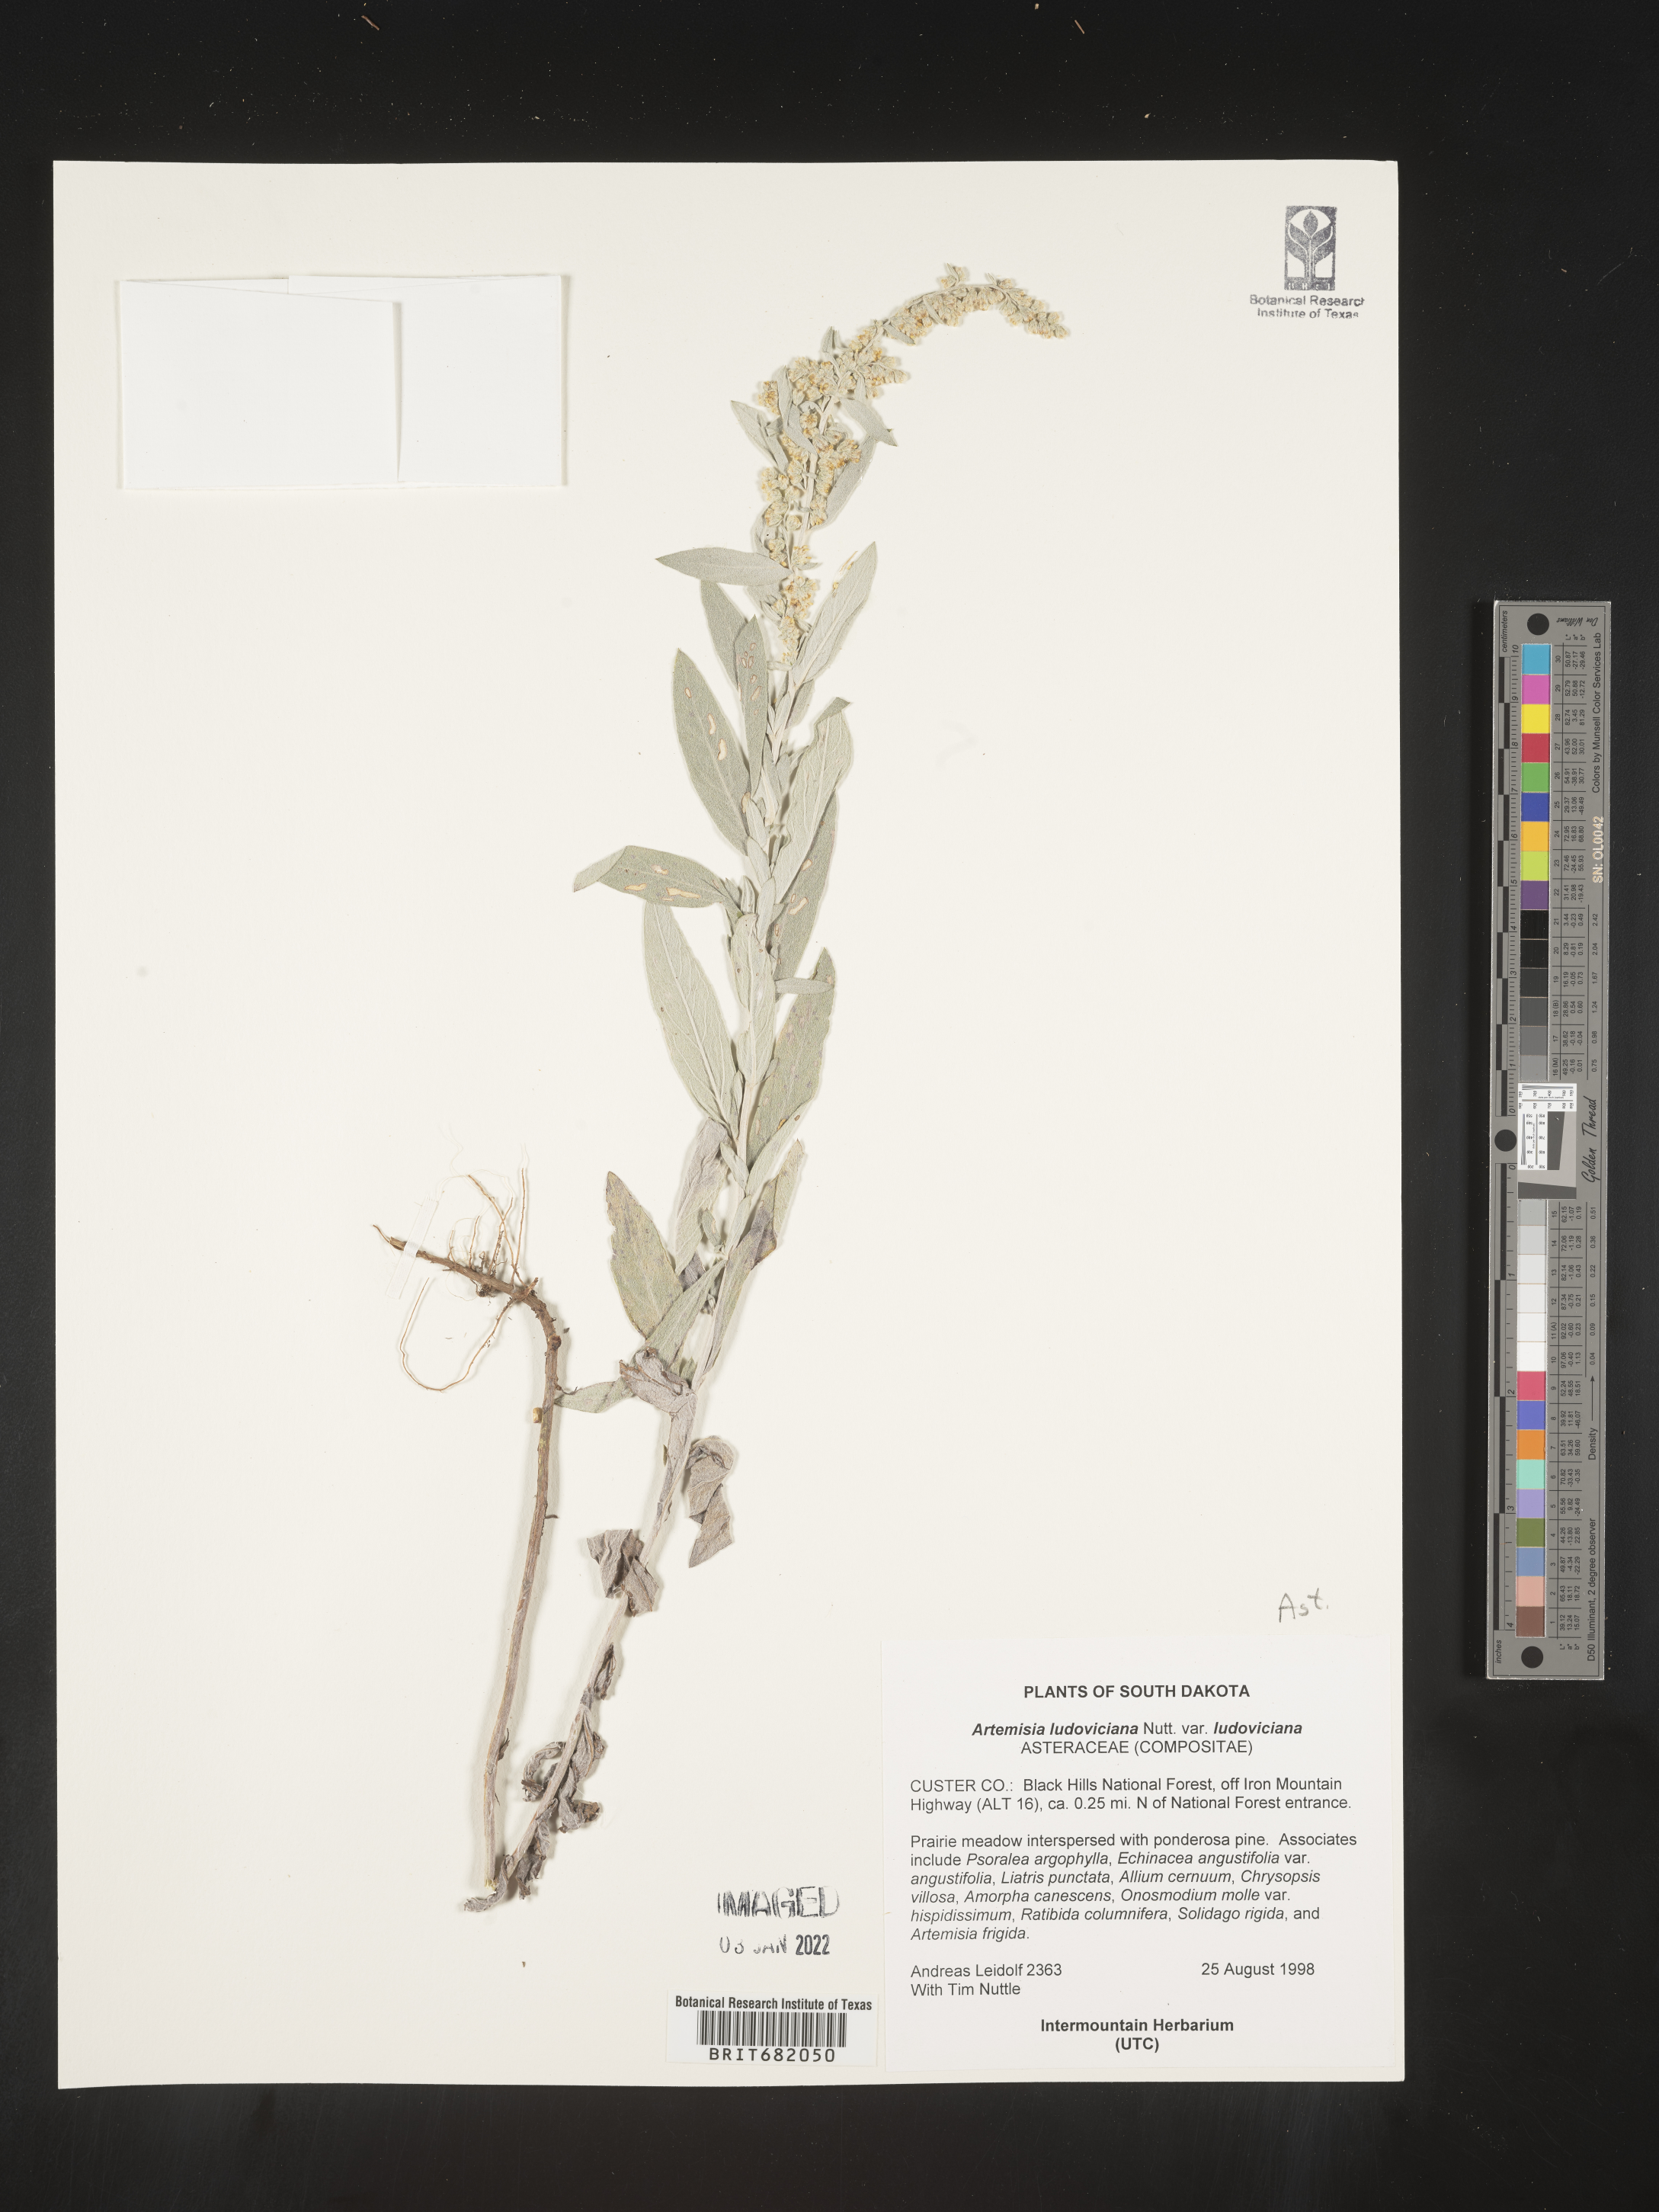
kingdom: Plantae
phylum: Tracheophyta
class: Magnoliopsida
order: Asterales
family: Asteraceae
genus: Artemisia
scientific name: Artemisia ludoviciana
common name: Western mugwort
